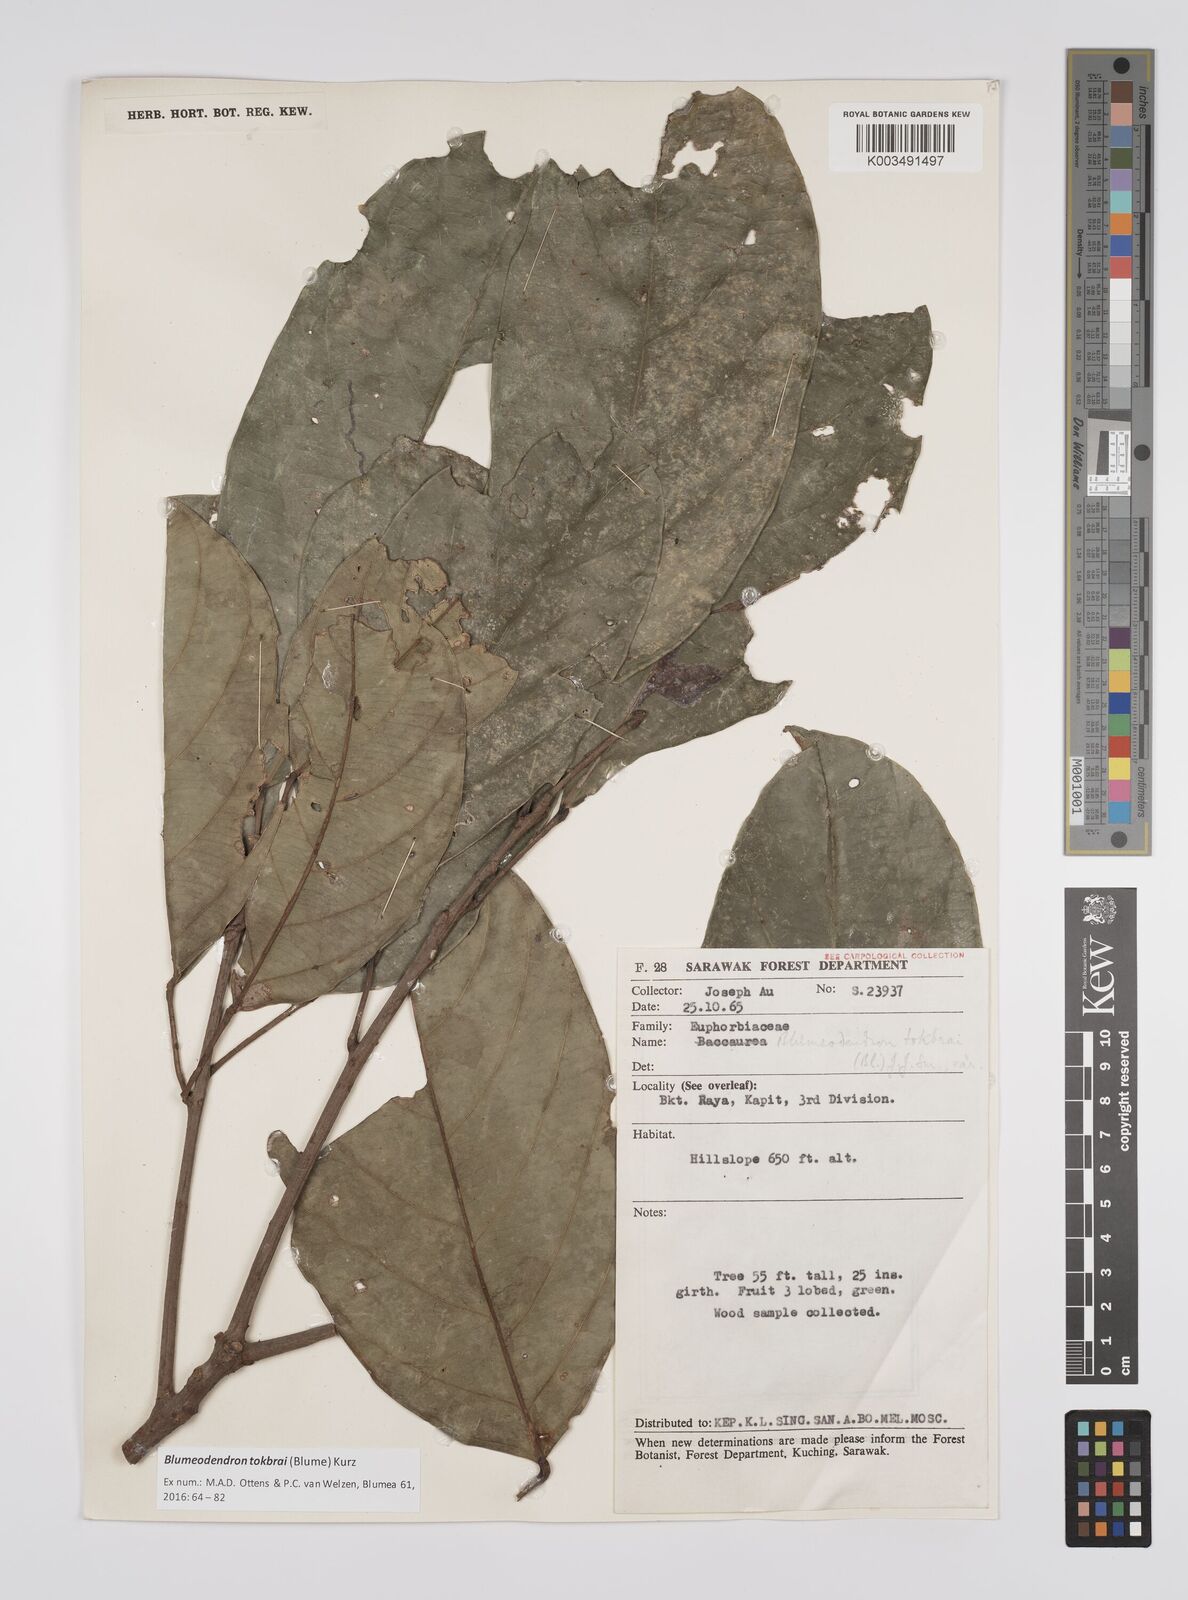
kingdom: Plantae
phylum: Tracheophyta
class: Magnoliopsida
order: Malpighiales
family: Euphorbiaceae
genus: Blumeodendron
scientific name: Blumeodendron tokbrai
